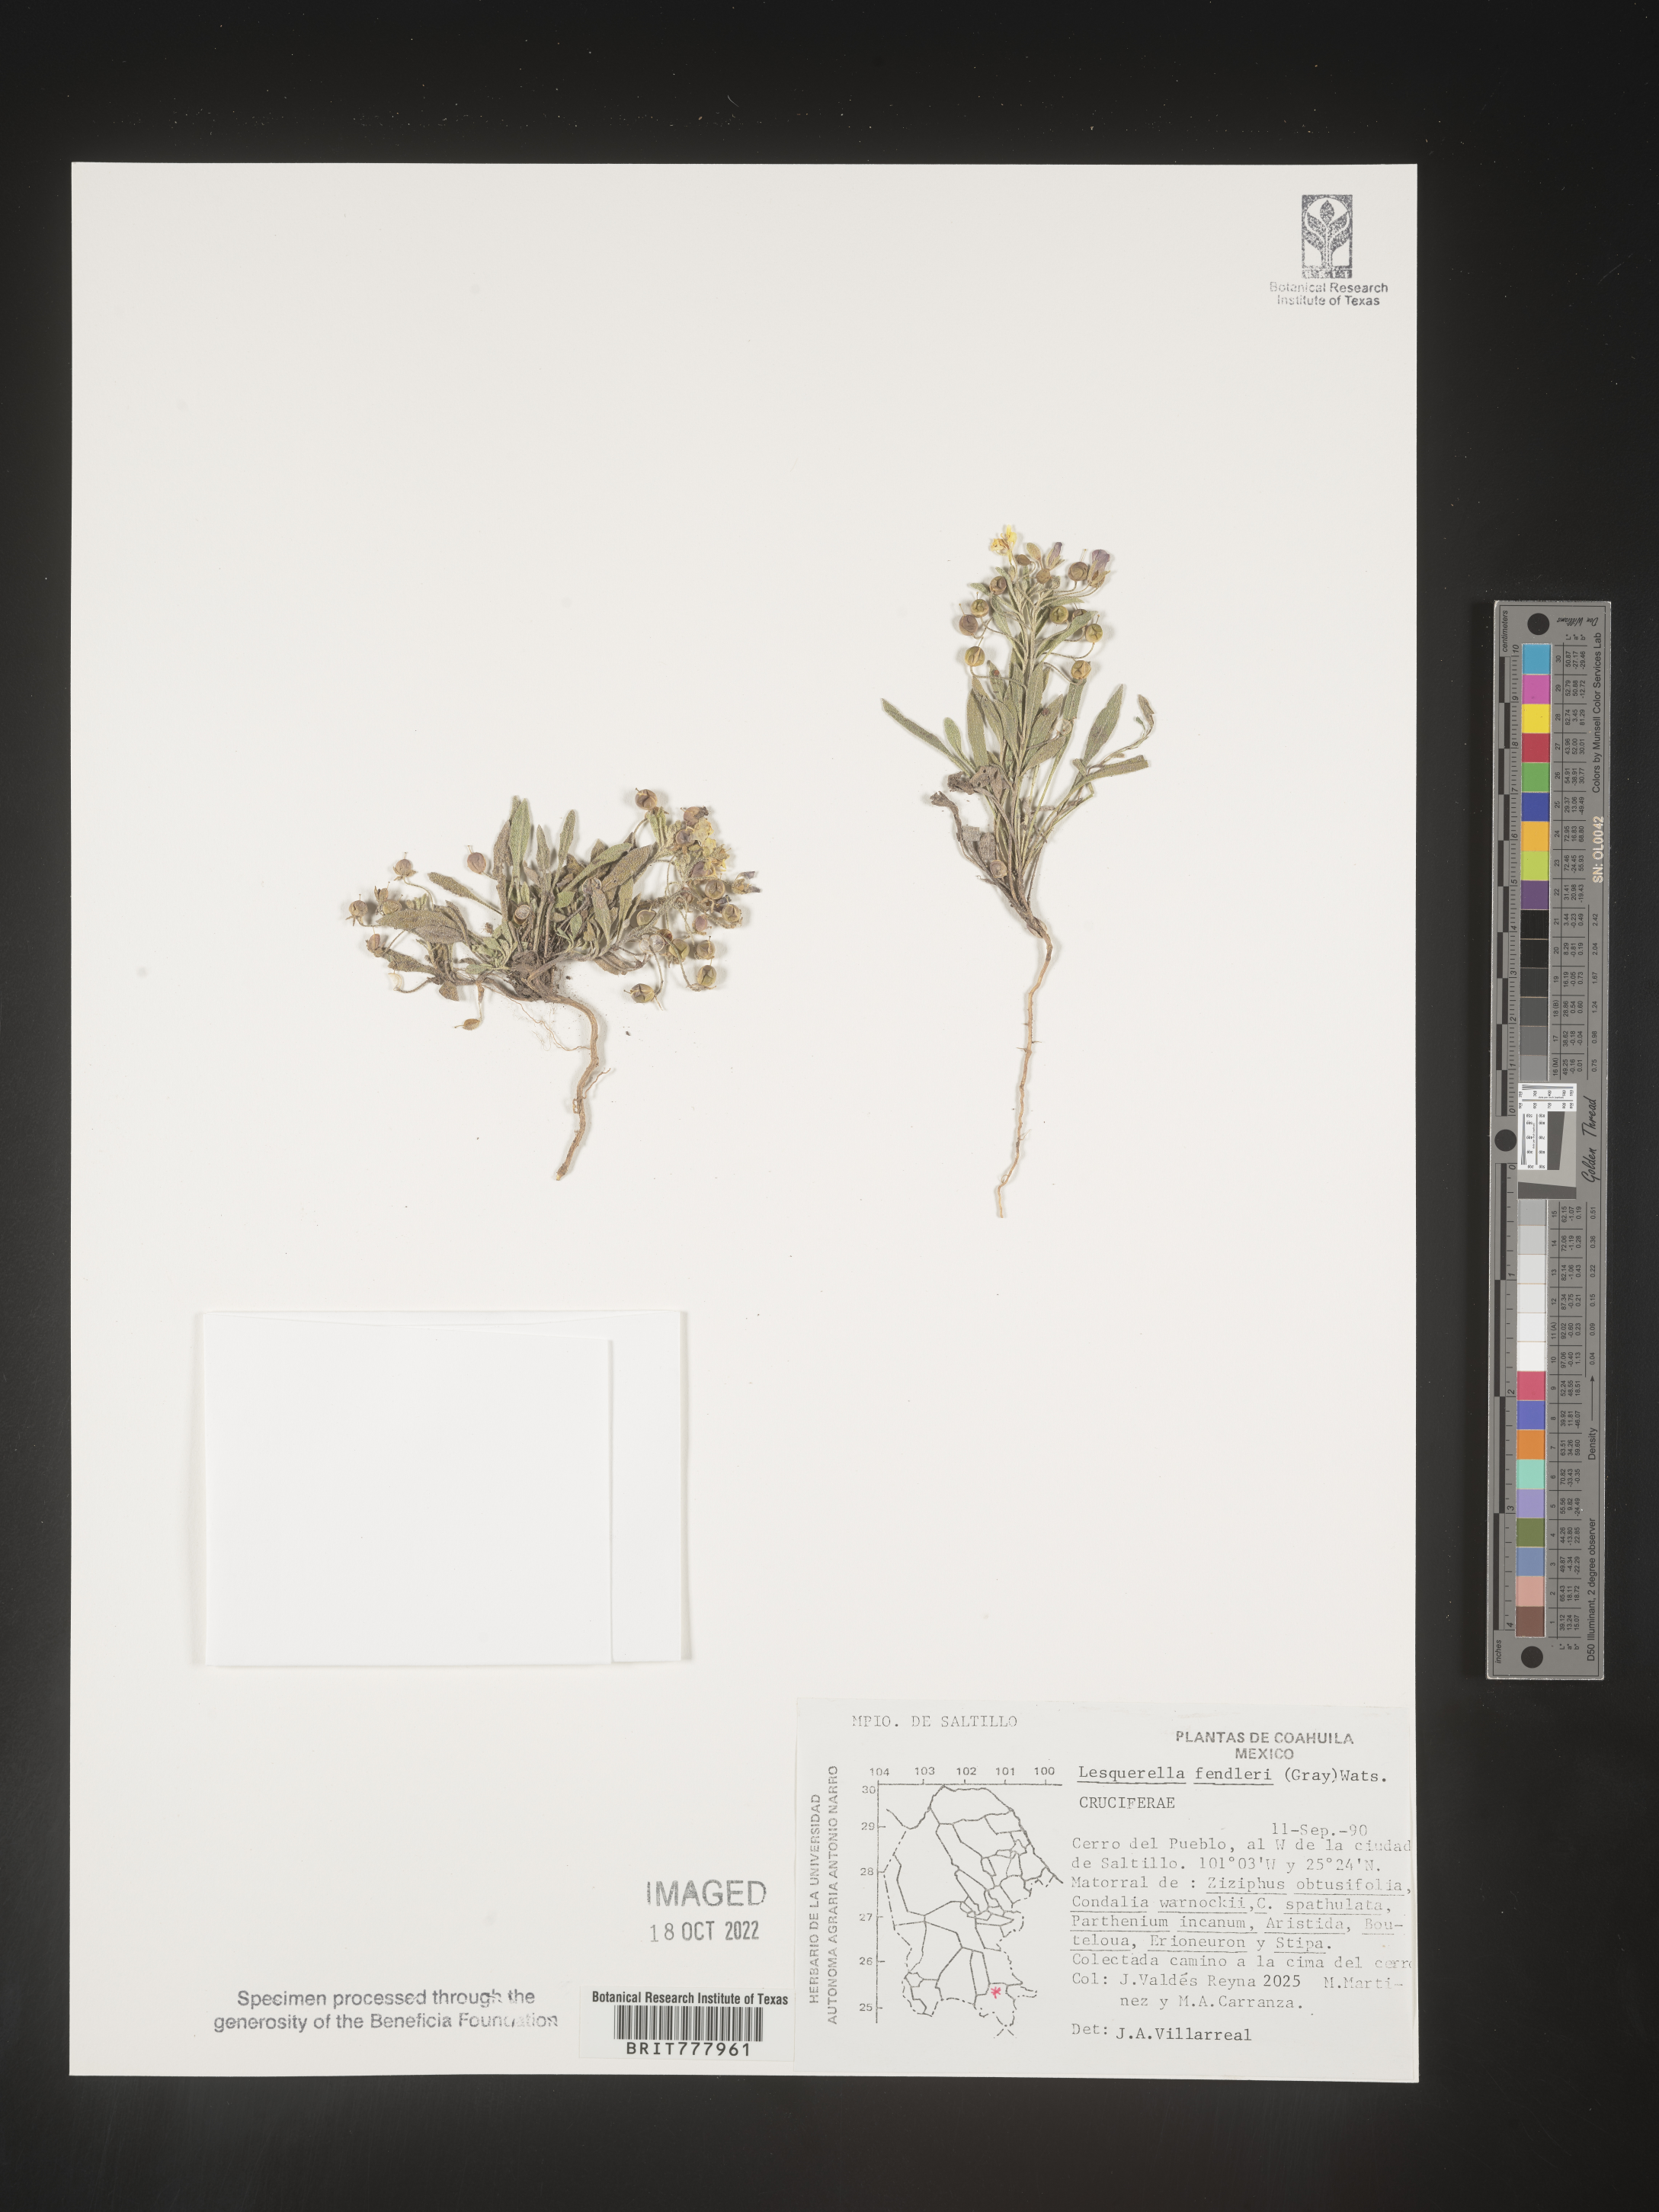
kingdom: Chromista
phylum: Cercozoa
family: Psammonobiotidae
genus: Lesquerella
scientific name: Lesquerella
